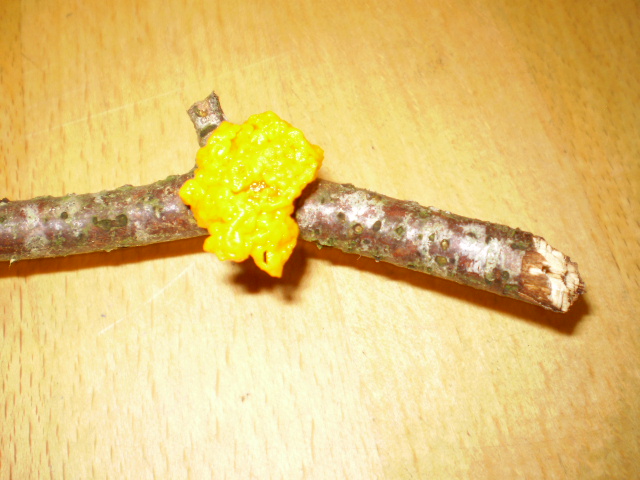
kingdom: Fungi
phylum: Basidiomycota
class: Tremellomycetes
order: Tremellales
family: Tremellaceae
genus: Tremella
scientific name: Tremella mesenterica
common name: gul bævresvamp
